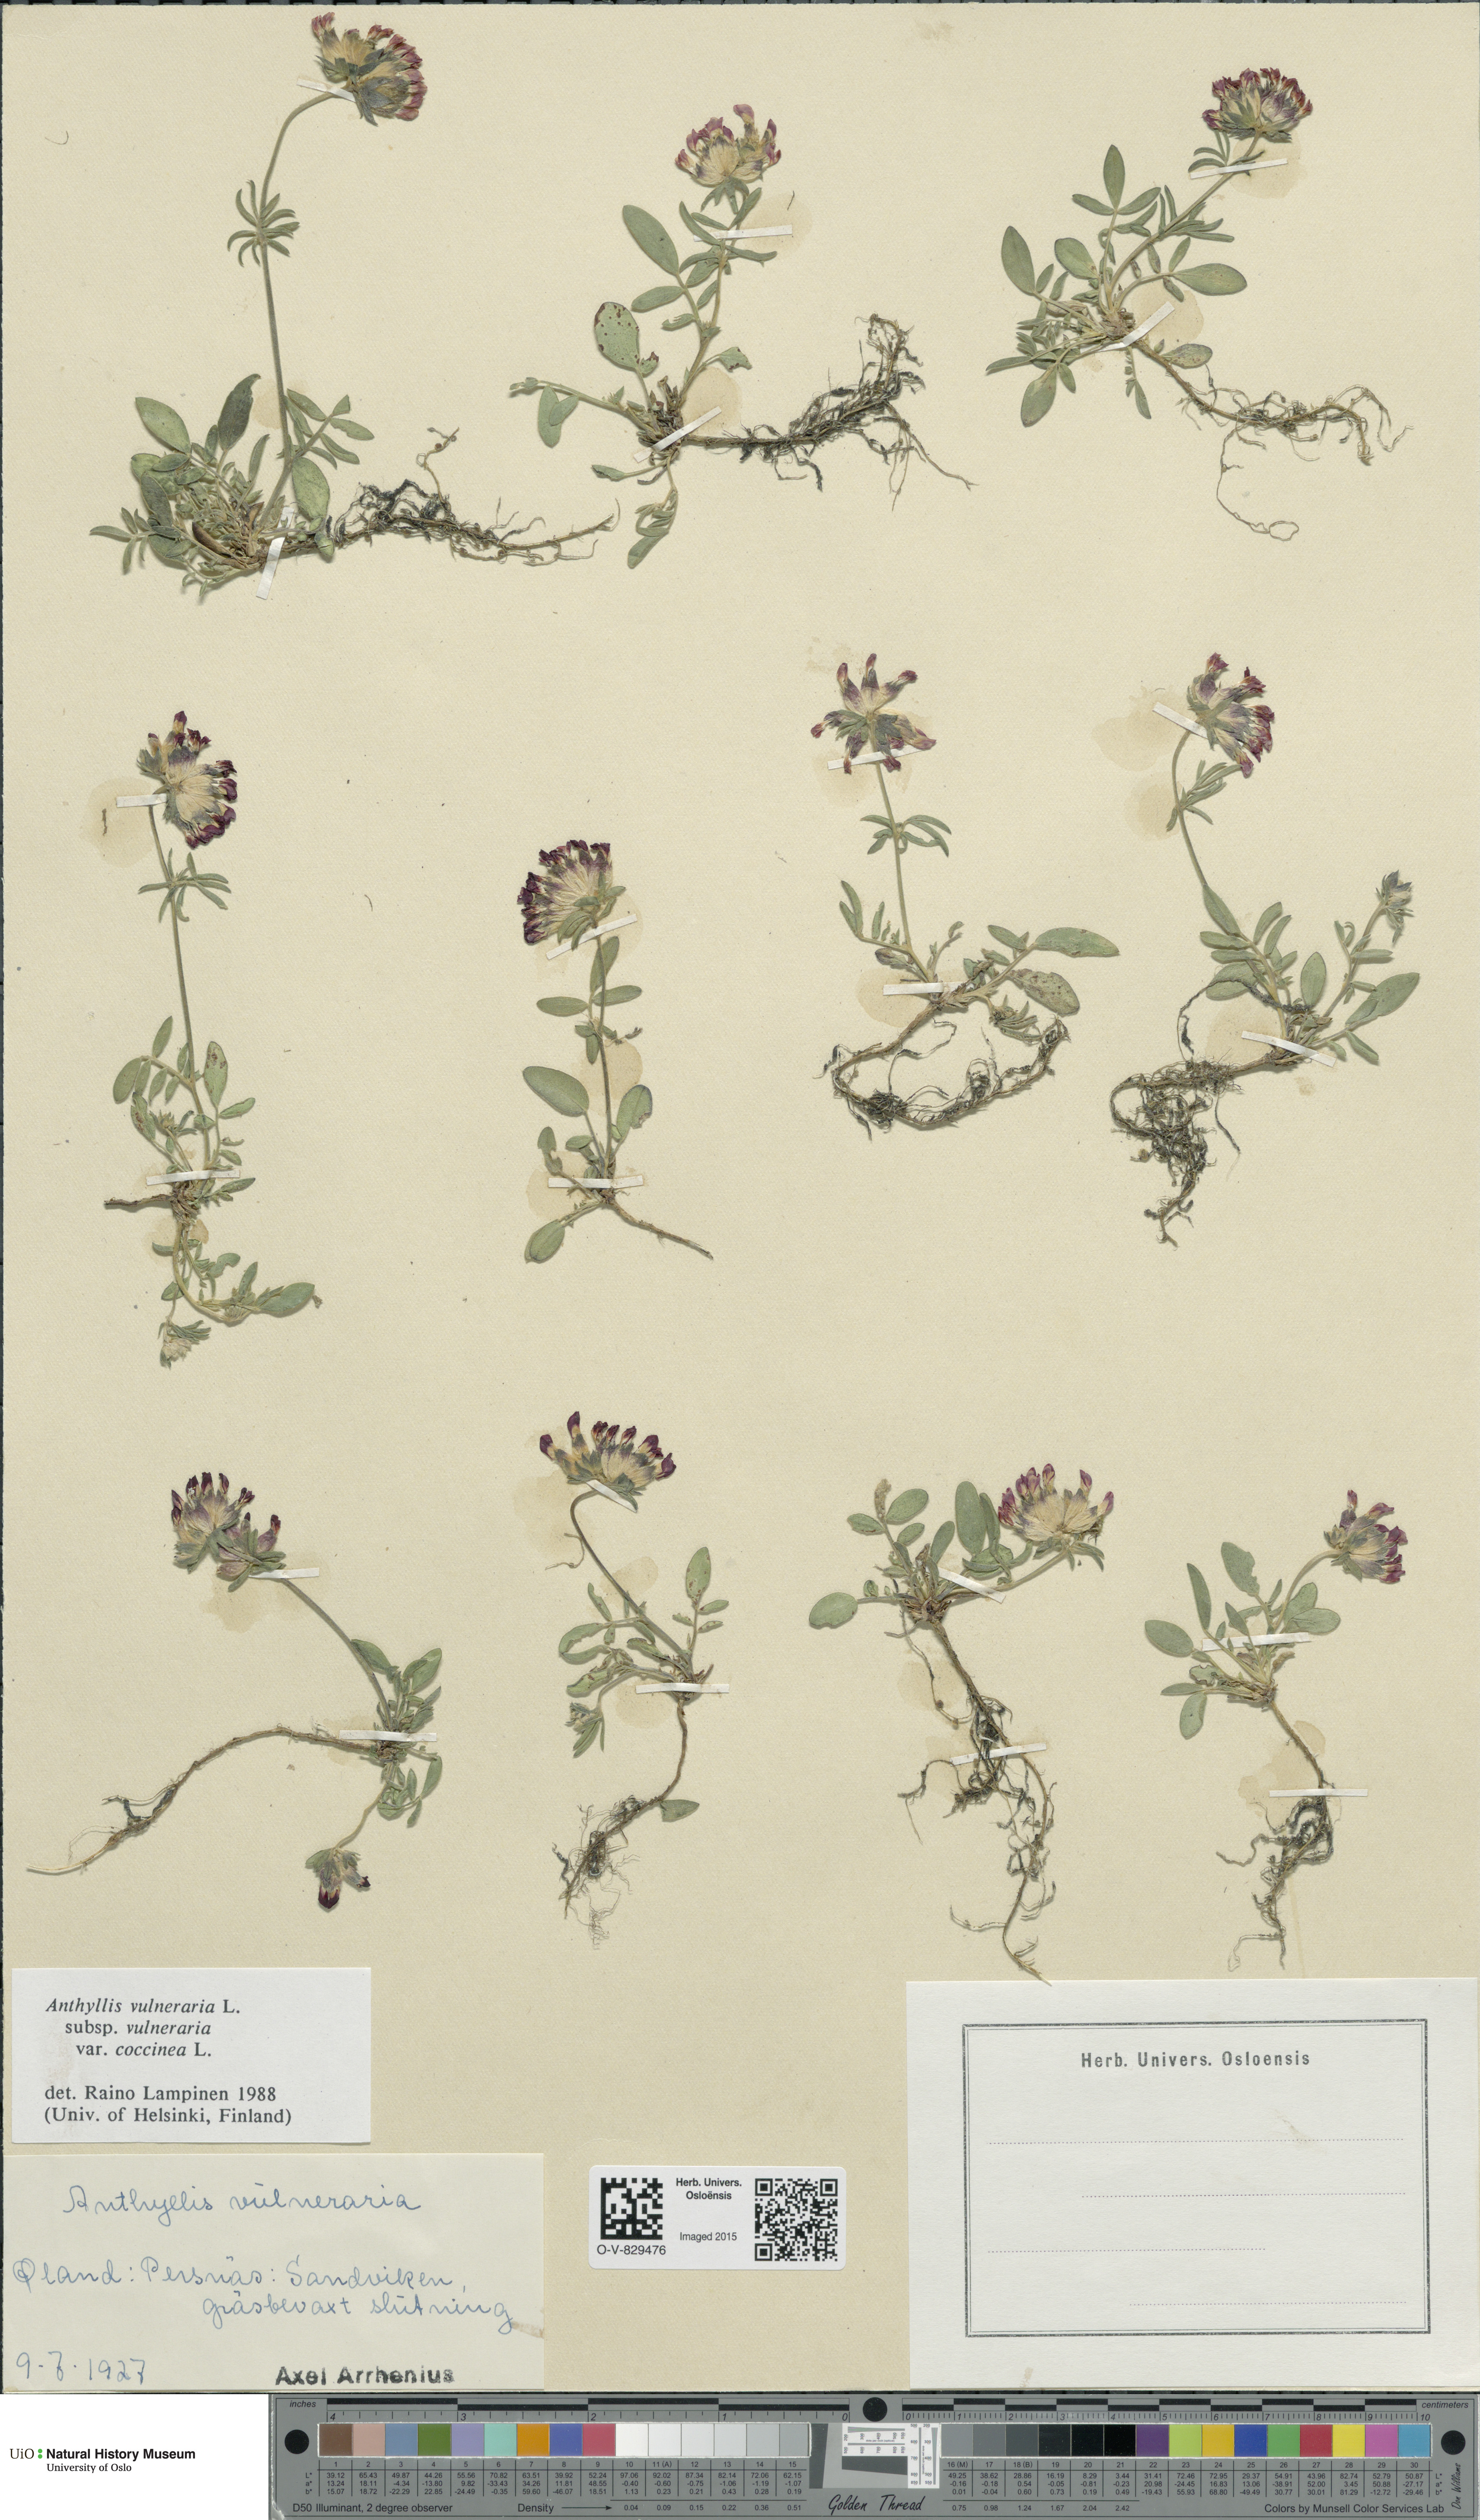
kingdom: Plantae
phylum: Tracheophyta
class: Magnoliopsida
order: Fabales
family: Fabaceae
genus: Anthyllis
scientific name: Anthyllis vulneraria
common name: Kidney vetch
